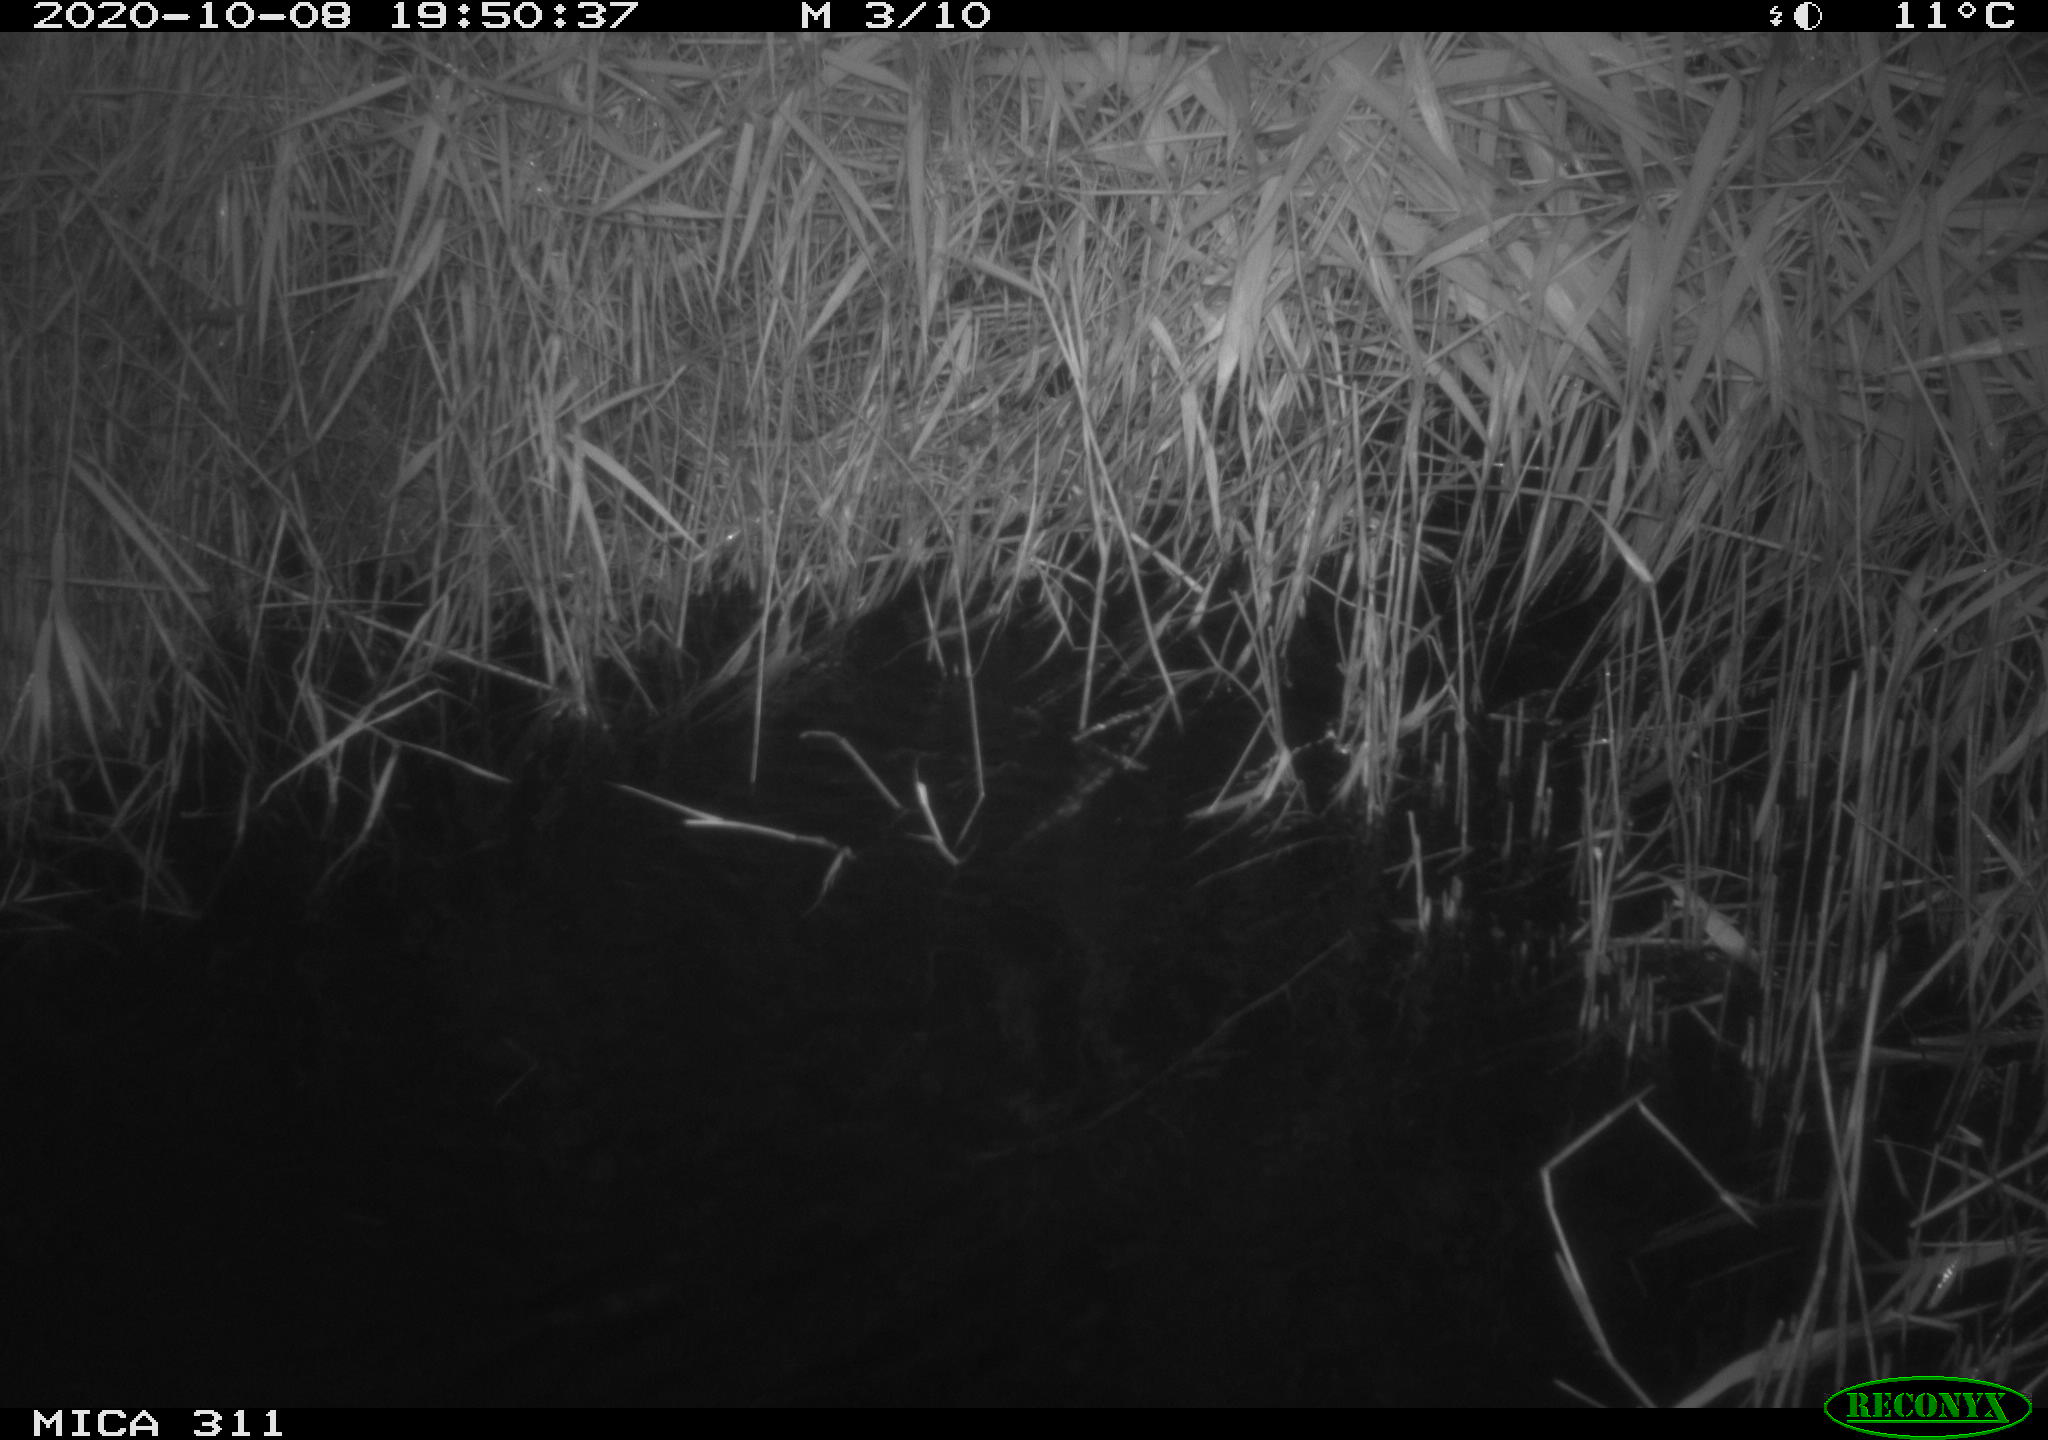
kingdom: Animalia
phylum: Chordata
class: Mammalia
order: Rodentia
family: Muridae
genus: Rattus
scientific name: Rattus norvegicus
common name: Brown rat
